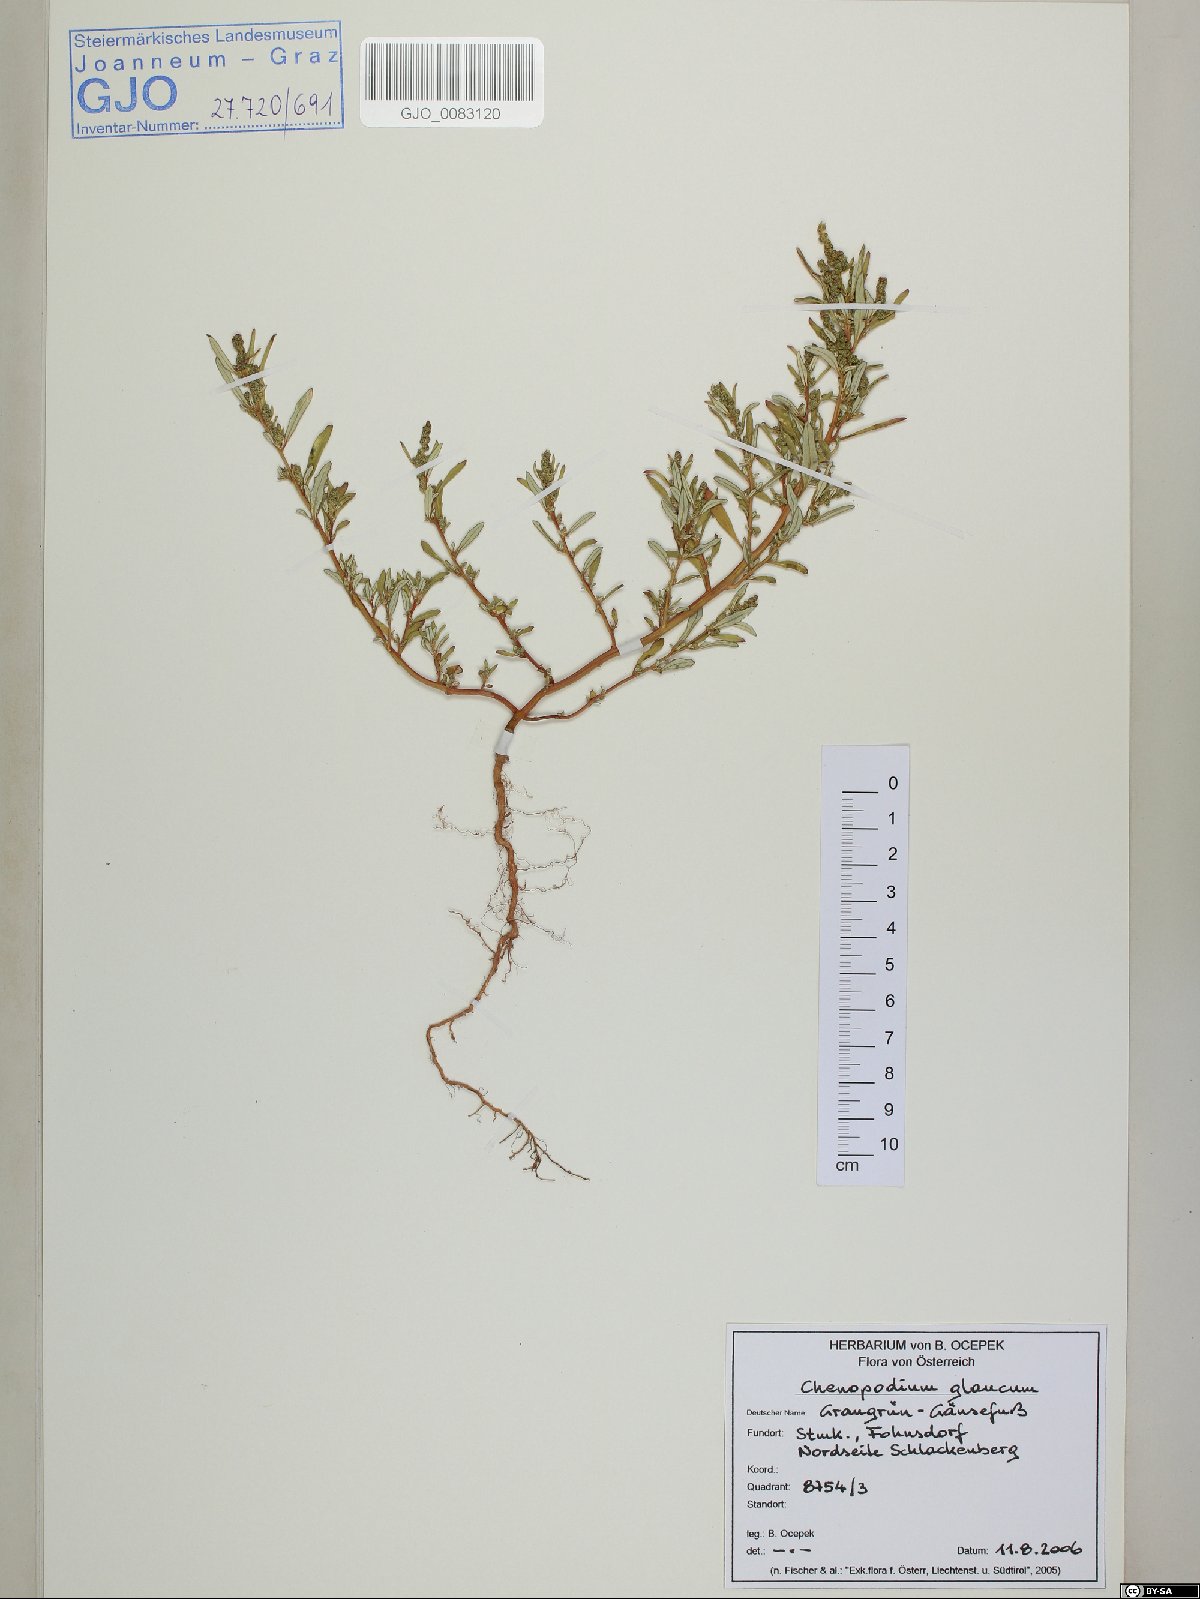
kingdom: Plantae
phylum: Tracheophyta
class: Magnoliopsida
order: Caryophyllales
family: Amaranthaceae
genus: Oxybasis
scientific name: Oxybasis glauca
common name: Glaucous goosefoot
